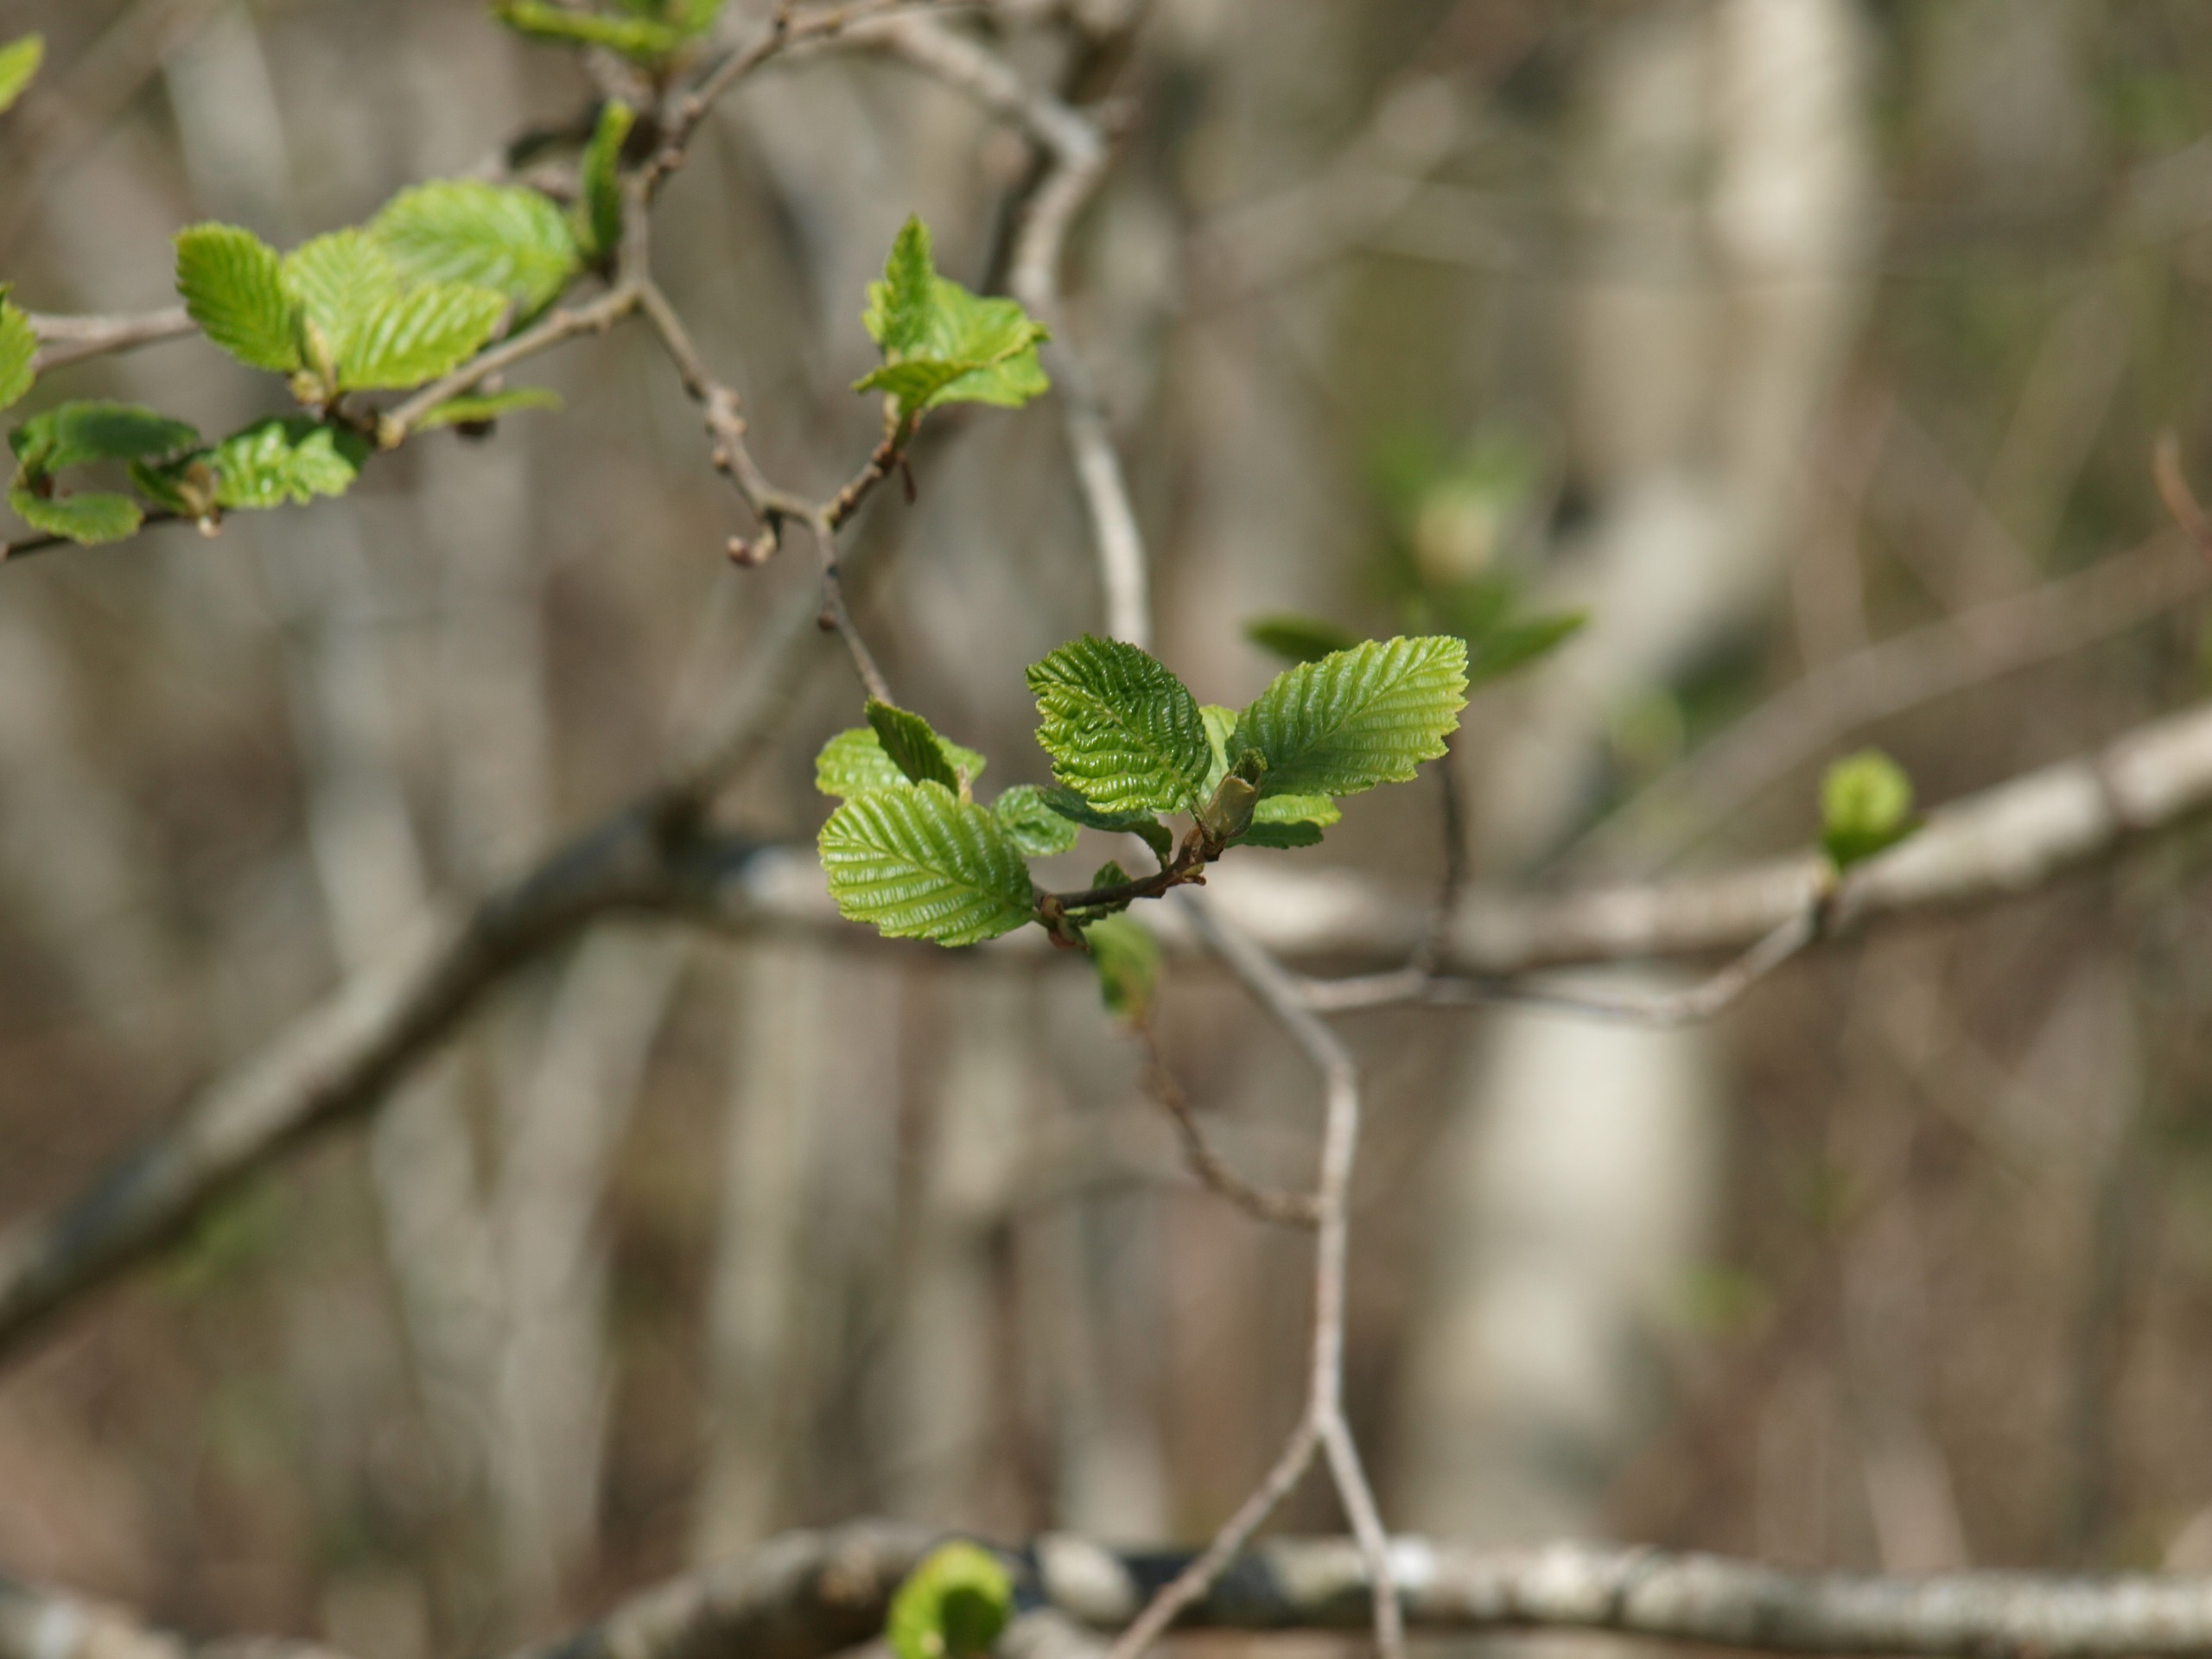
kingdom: Plantae
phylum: Tracheophyta
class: Magnoliopsida
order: Fagales
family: Betulaceae
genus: Alnus
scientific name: Alnus glutinosa
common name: Rød-el
